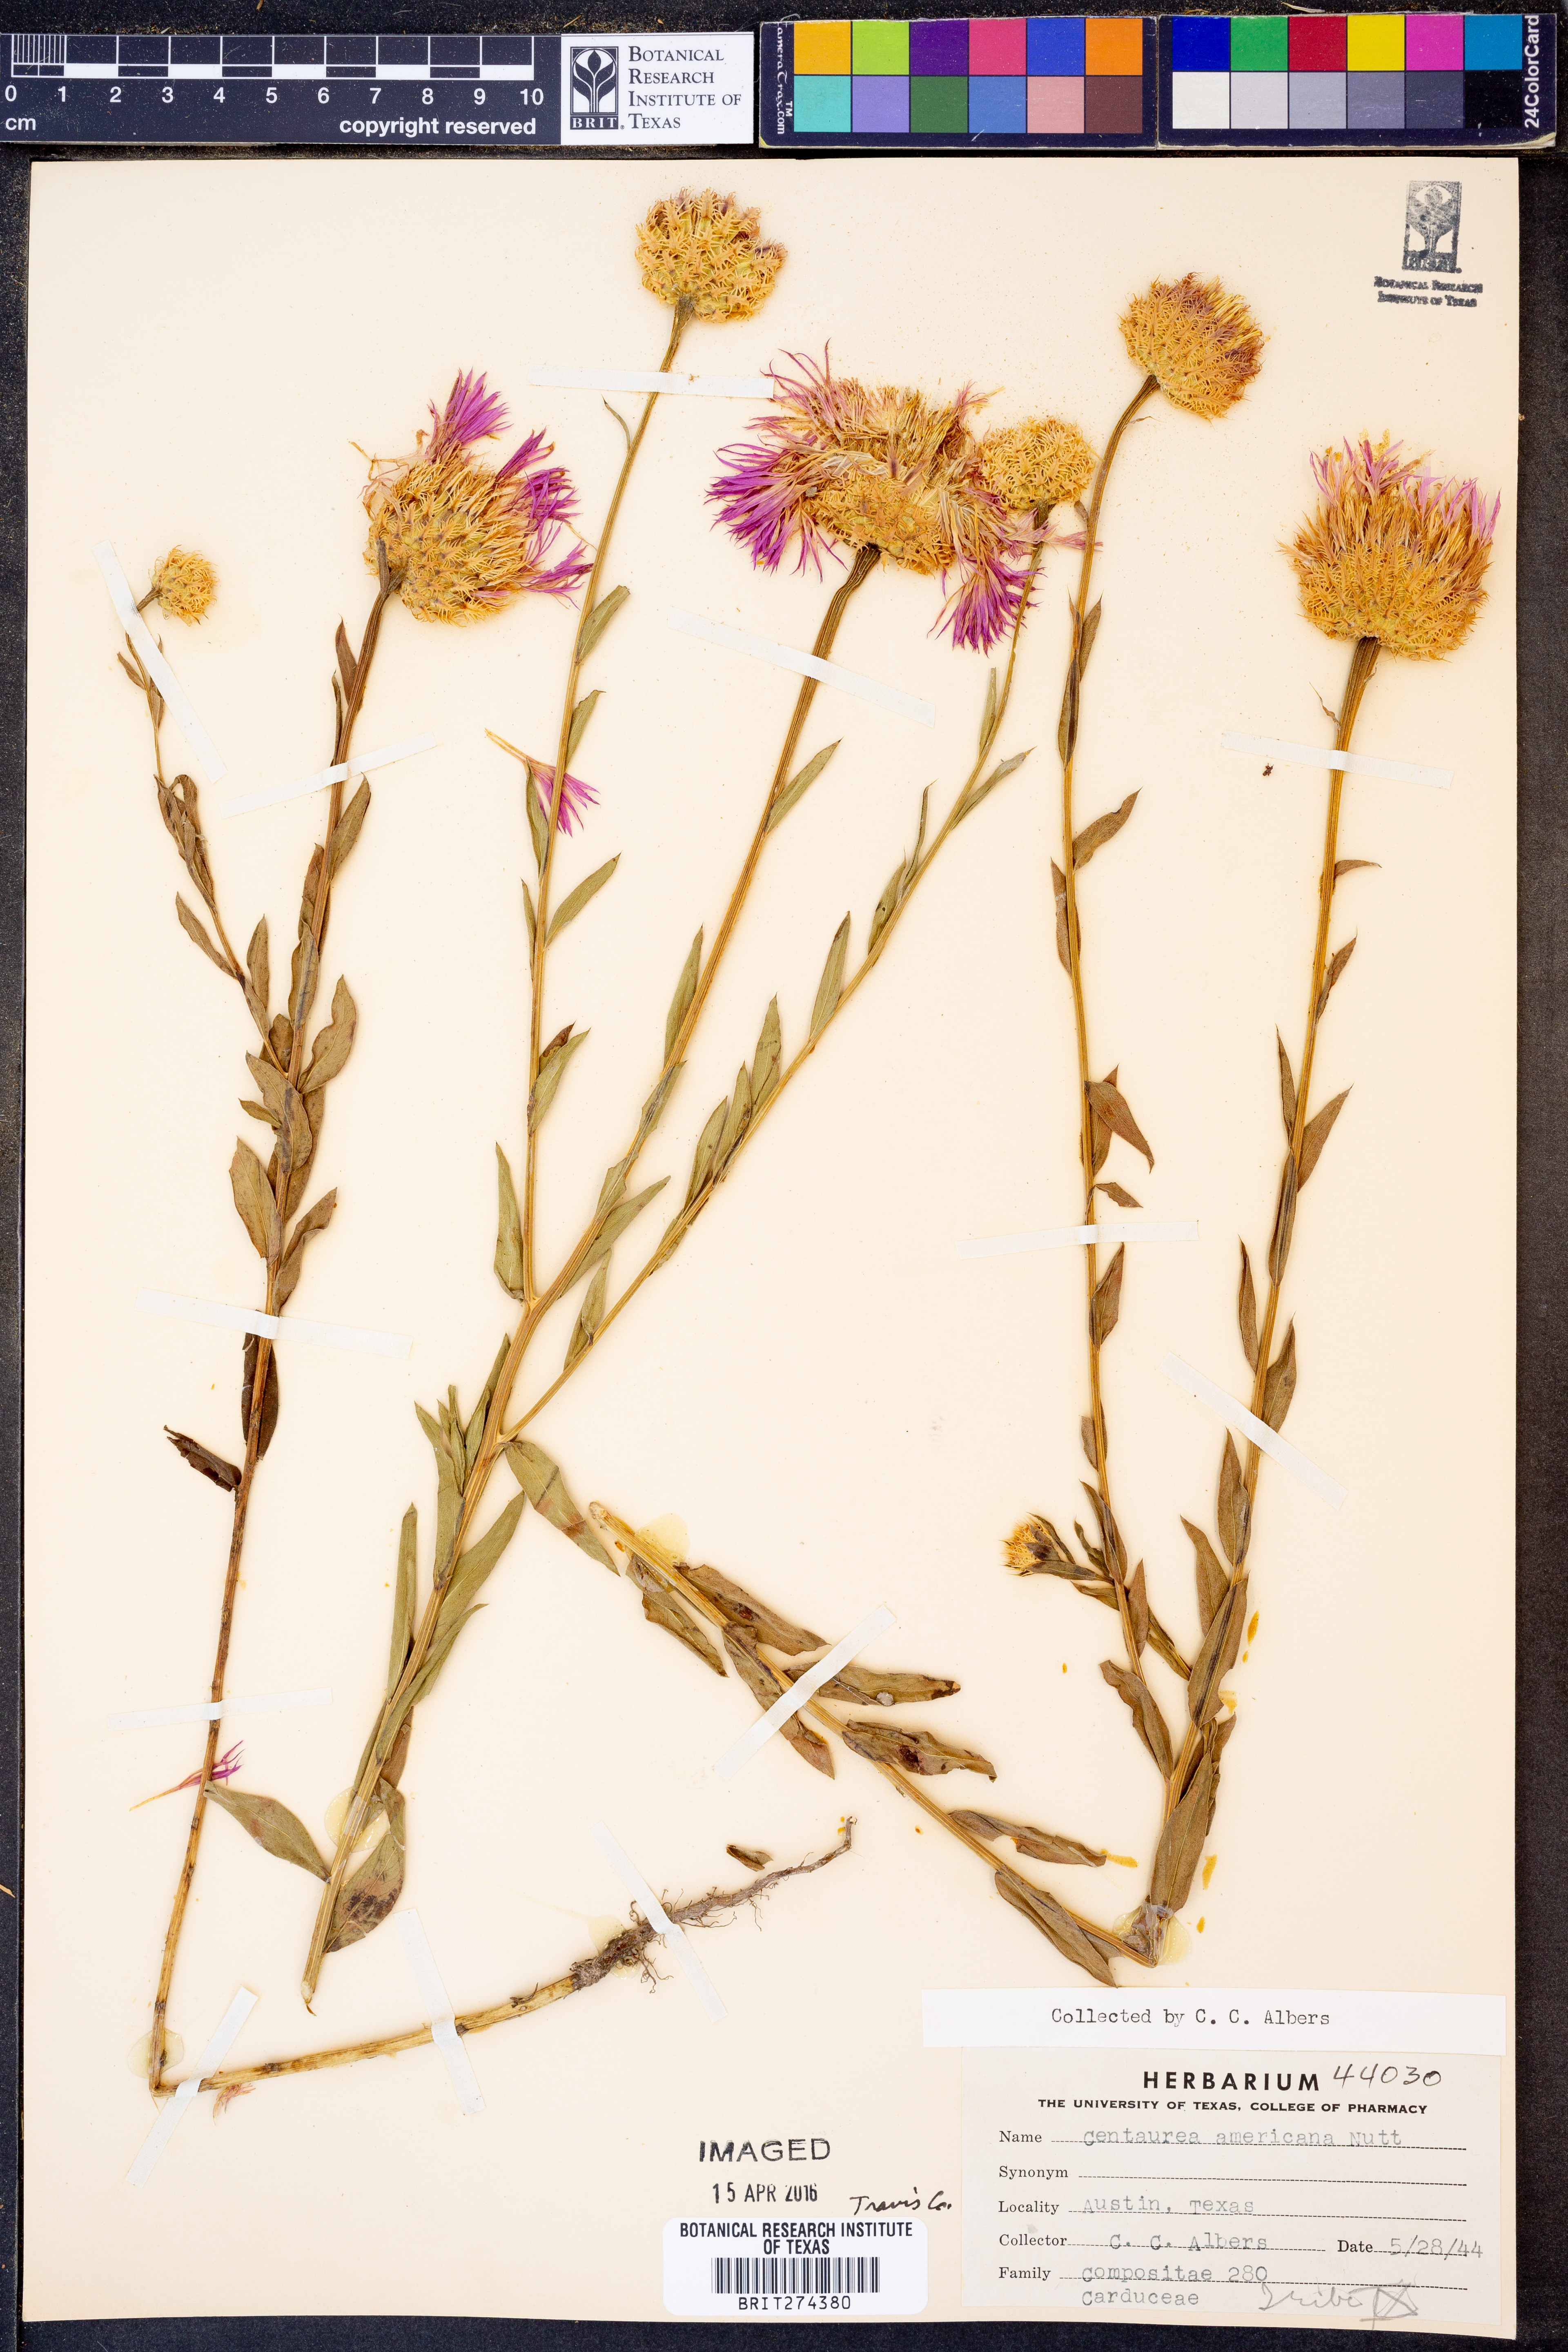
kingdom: Plantae
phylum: Tracheophyta
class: Magnoliopsida
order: Asterales
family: Asteraceae
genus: Plectocephalus
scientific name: Plectocephalus americanus
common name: American basket-flower
